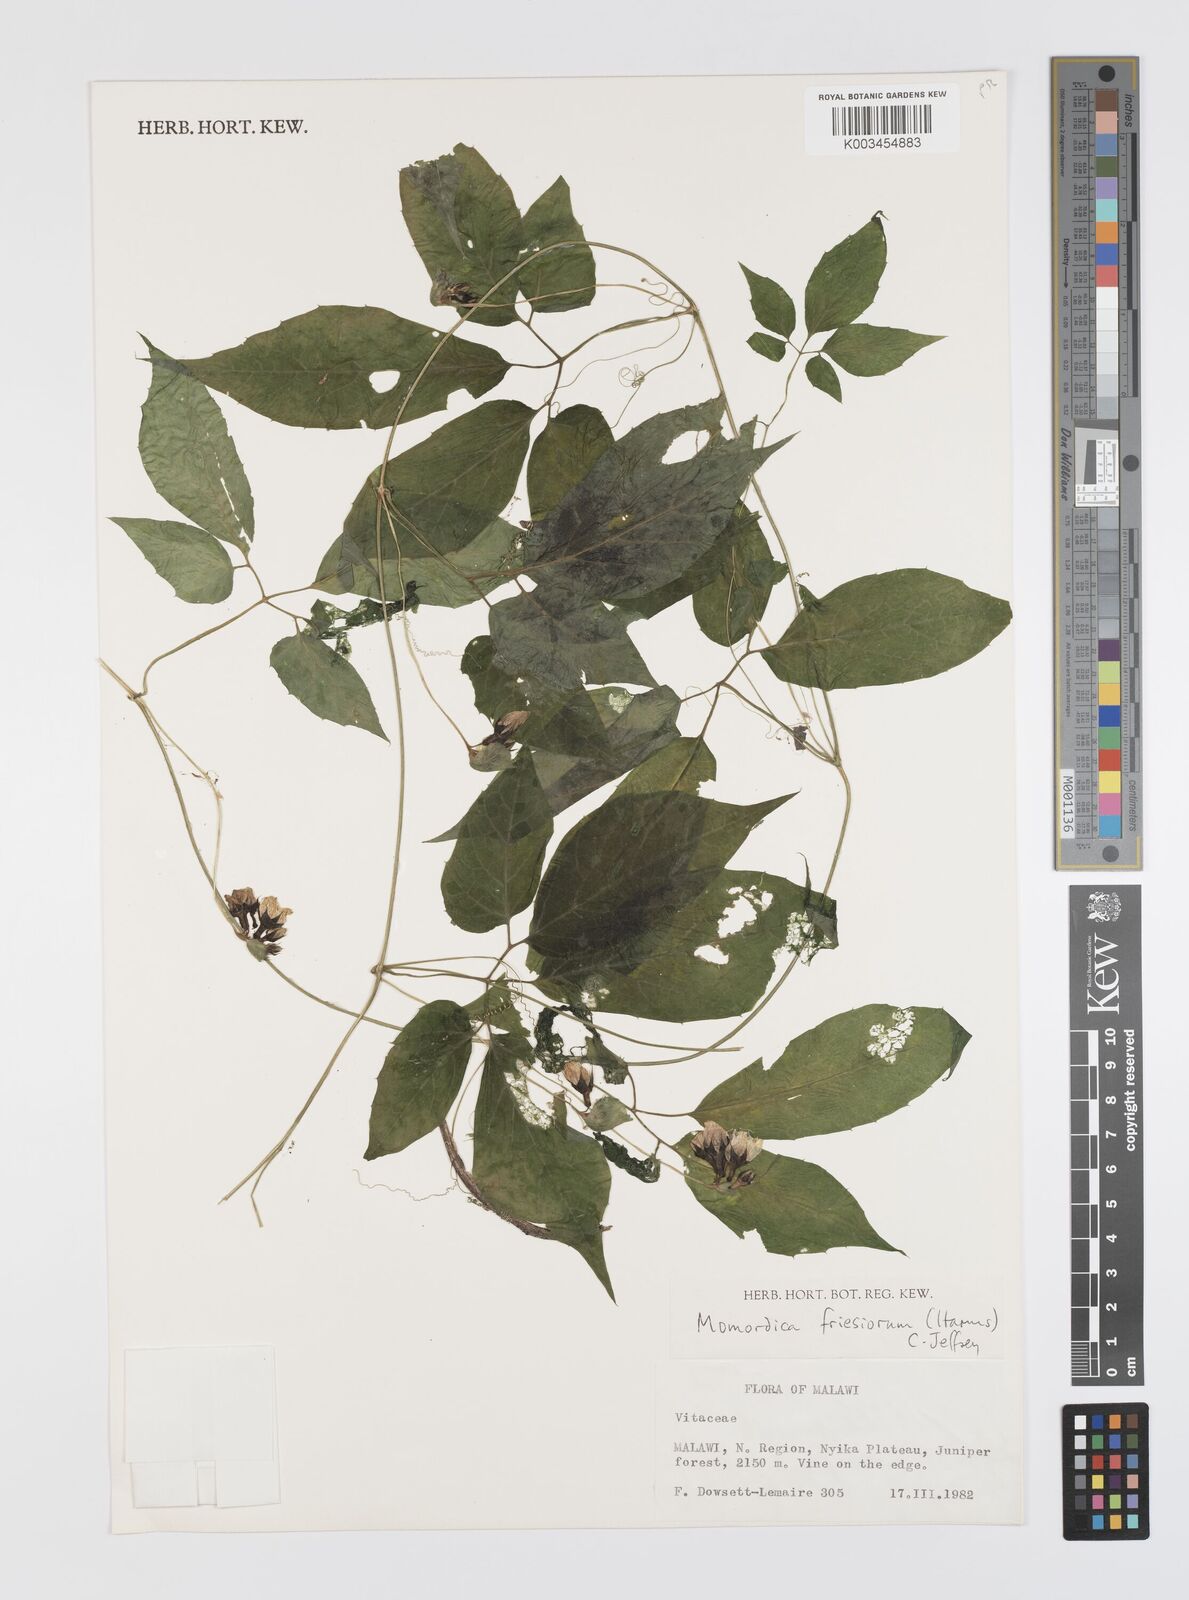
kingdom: Plantae
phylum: Tracheophyta
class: Magnoliopsida
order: Cucurbitales
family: Cucurbitaceae
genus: Momordica
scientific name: Momordica friesiorum
